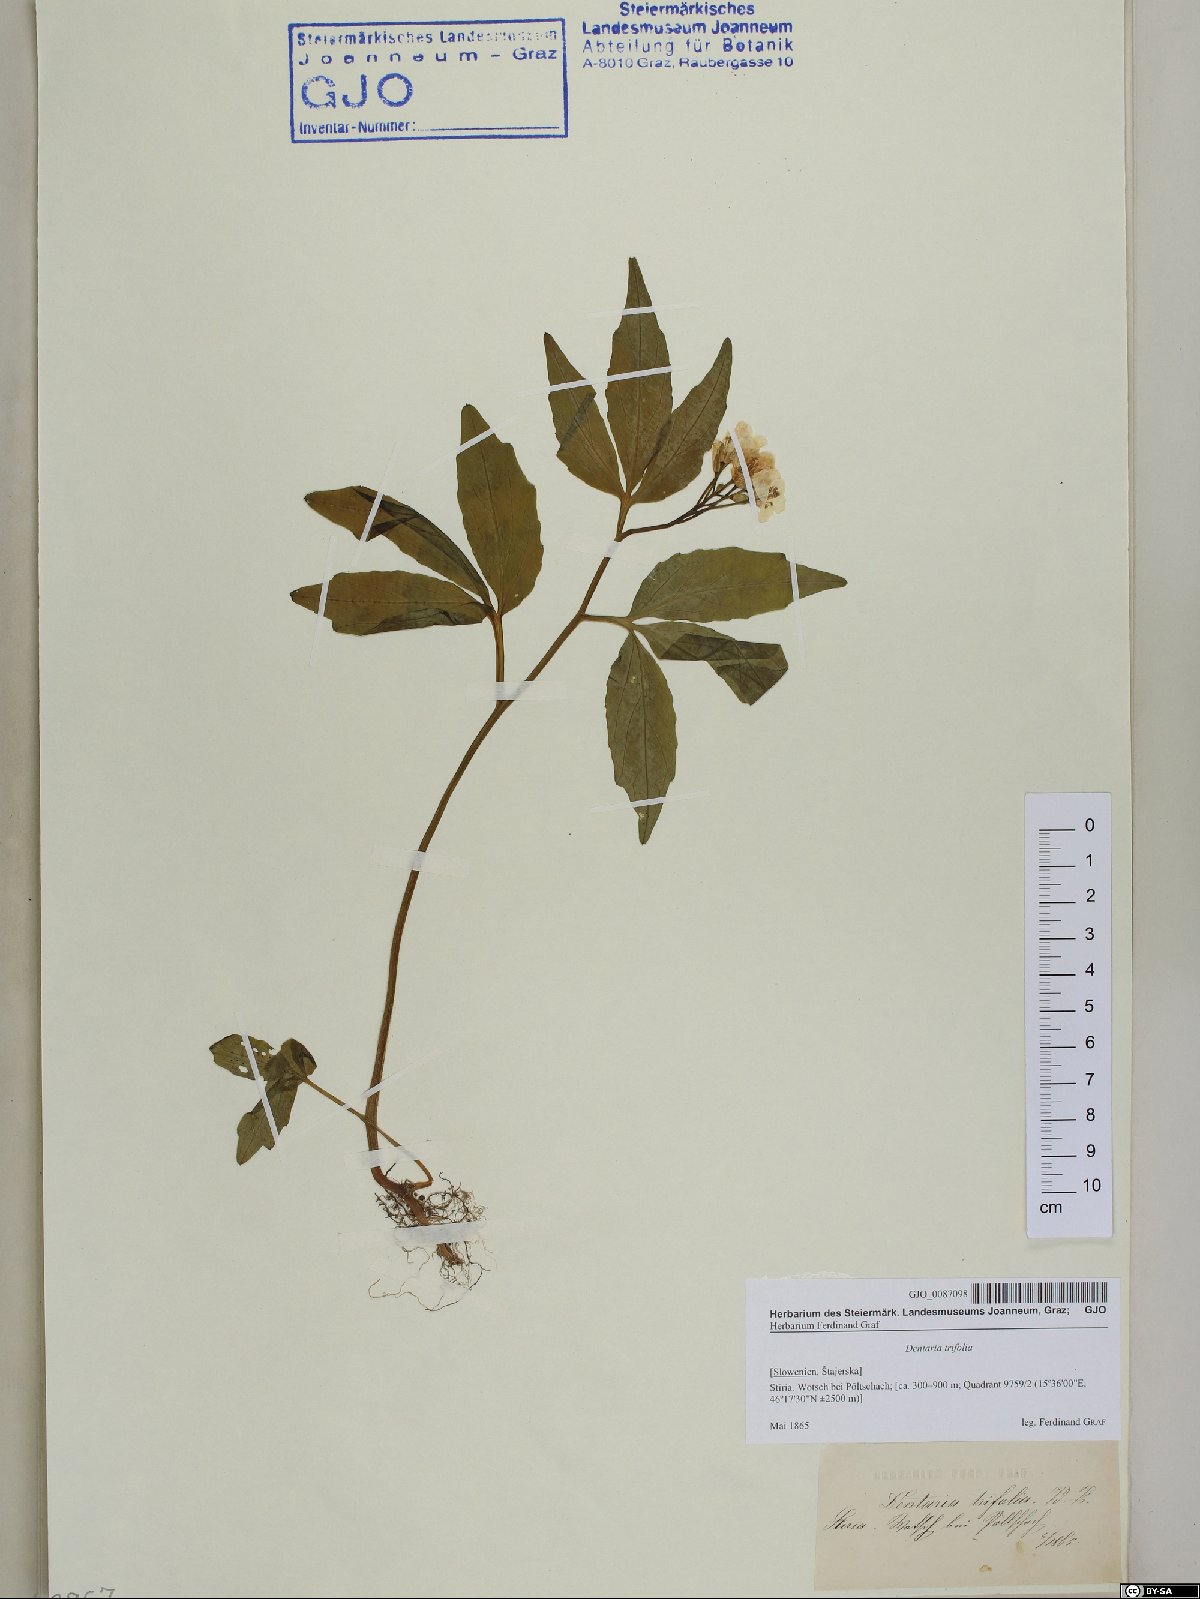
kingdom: Plantae
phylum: Tracheophyta
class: Magnoliopsida
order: Brassicales
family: Brassicaceae
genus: Cardamine
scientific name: Cardamine waldsteinii
